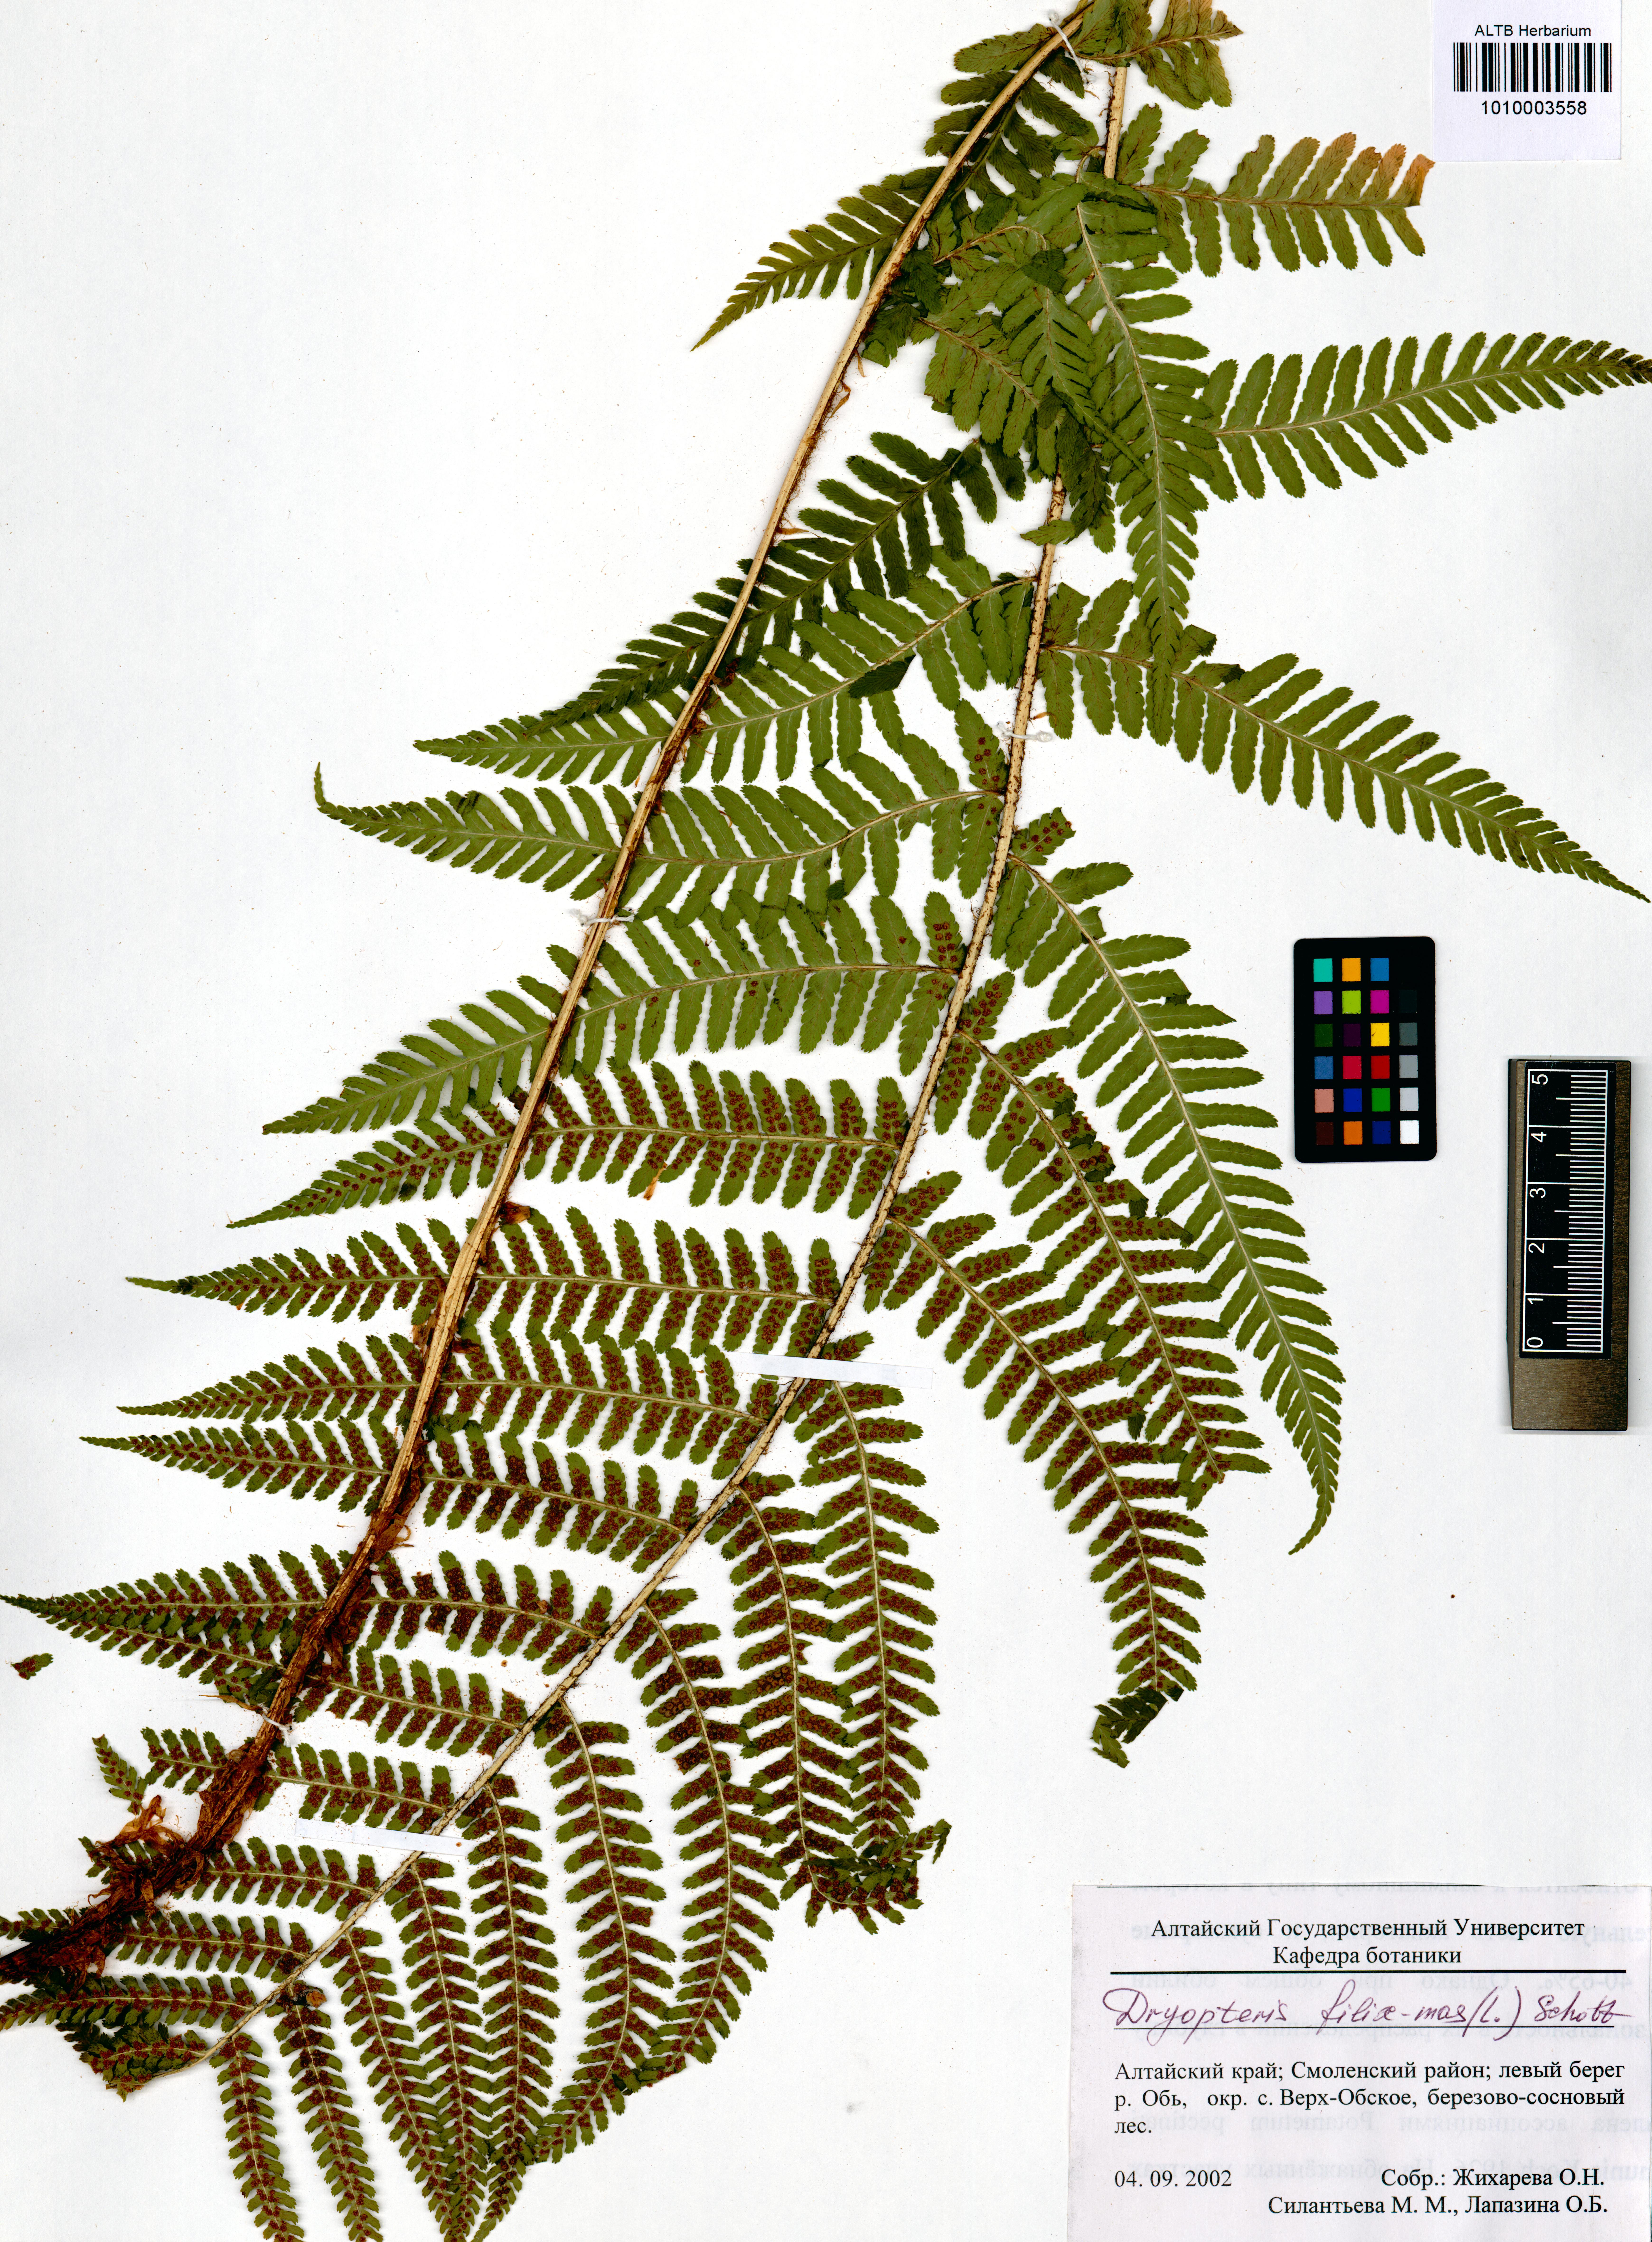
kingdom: Plantae
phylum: Tracheophyta
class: Polypodiopsida
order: Polypodiales
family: Dryopteridaceae
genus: Dryopteris
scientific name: Dryopteris filix-mas
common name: Male fern
